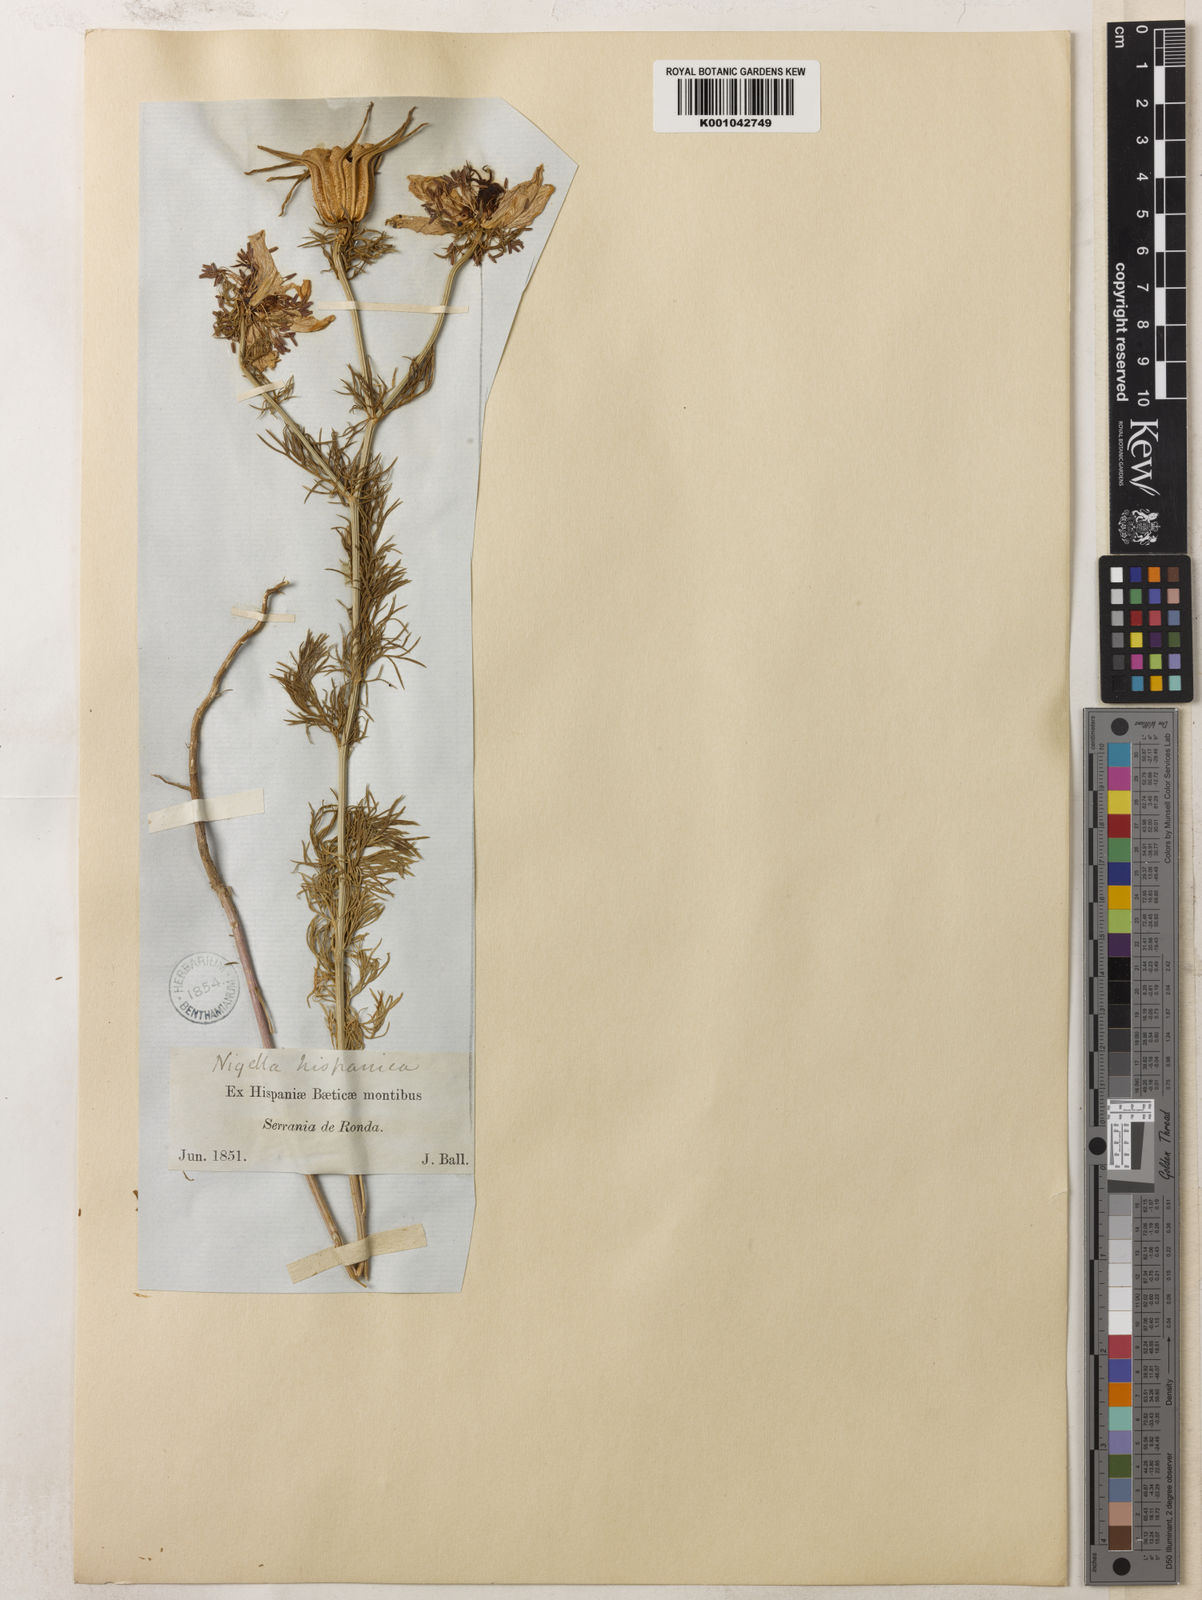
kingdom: Plantae
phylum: Tracheophyta
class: Magnoliopsida
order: Ranunculales
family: Ranunculaceae
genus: Nigella
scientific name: Nigella hispanica
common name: Fennel-flower
